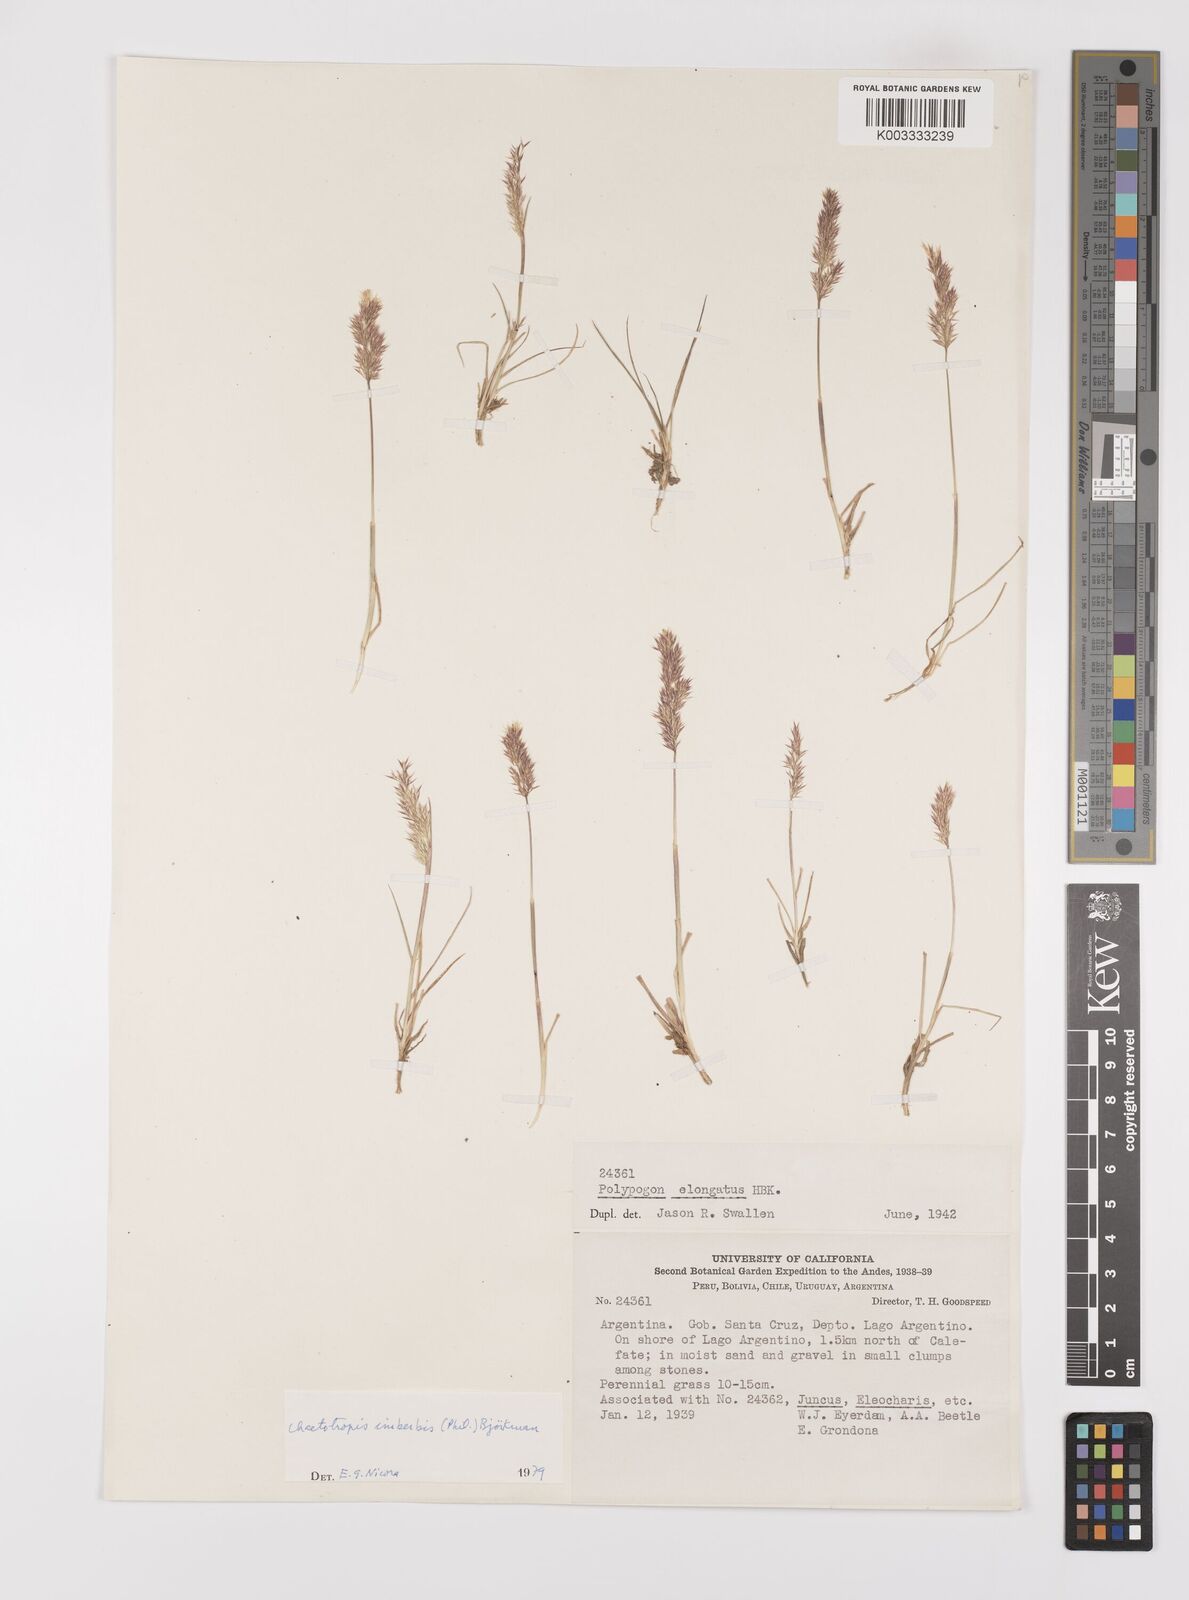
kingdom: Plantae
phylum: Tracheophyta
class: Liliopsida
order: Poales
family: Poaceae
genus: Polypogon
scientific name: Polypogon imberbis
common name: Beardless rabbitsfoot grass
